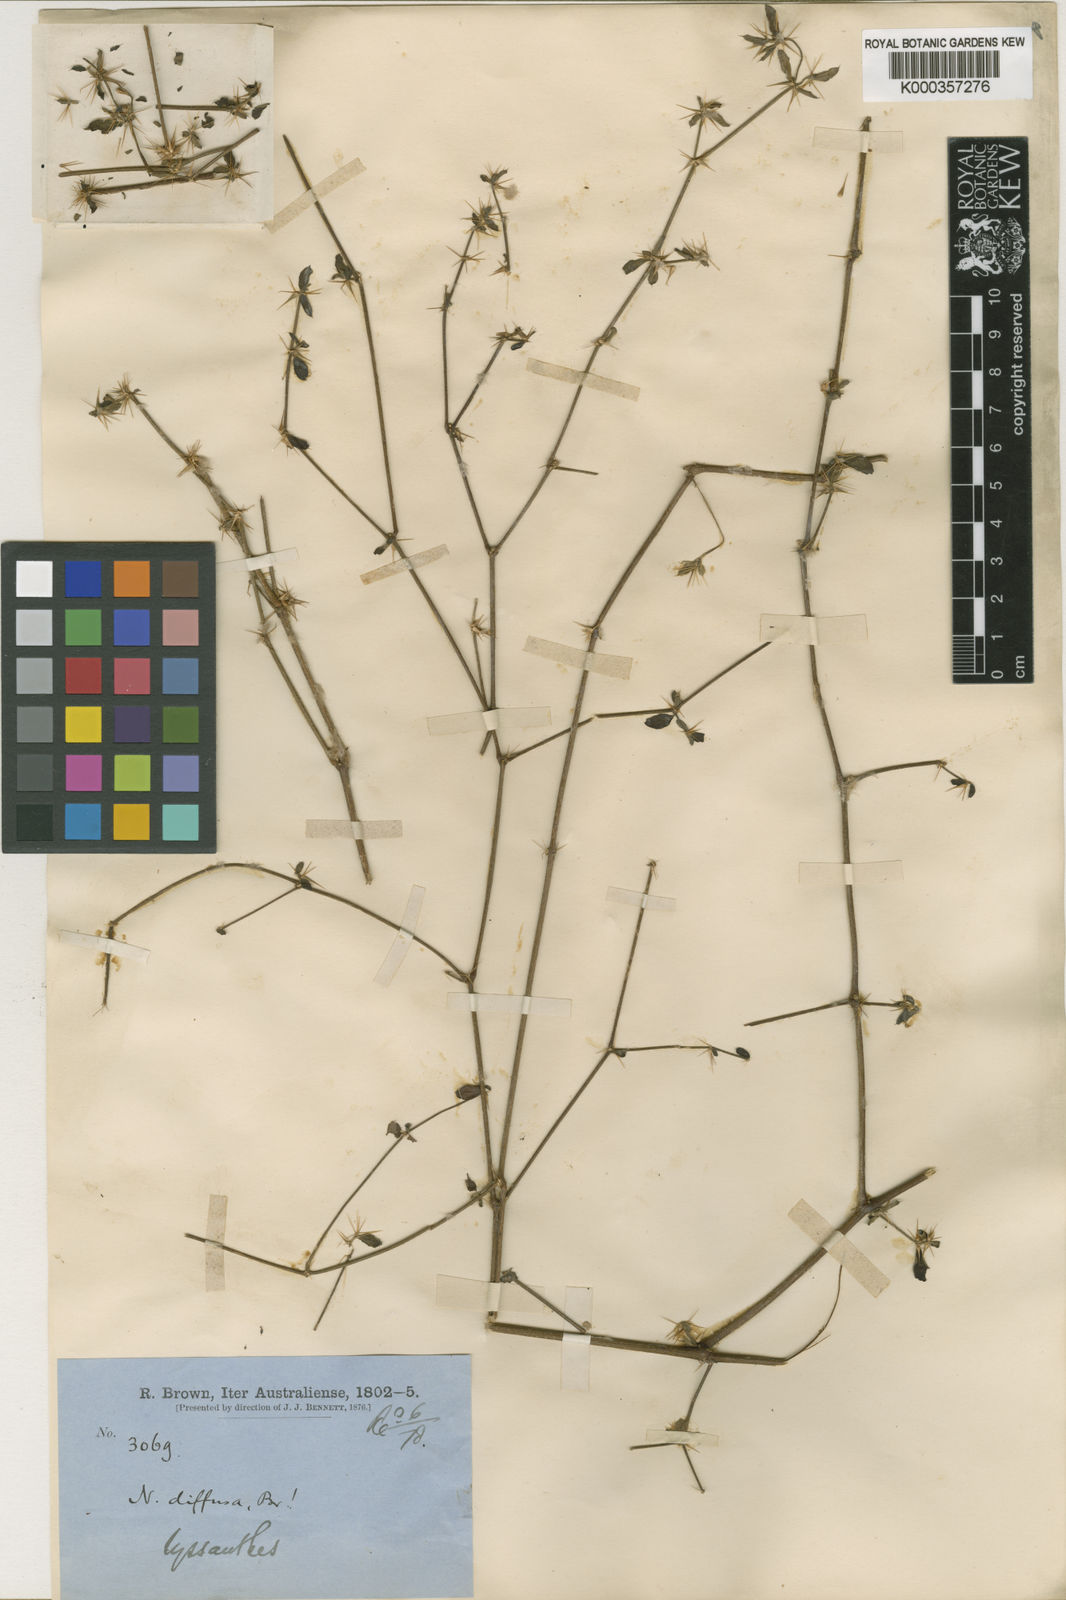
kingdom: Plantae
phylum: Tracheophyta
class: Magnoliopsida
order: Caryophyllales
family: Amaranthaceae
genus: Nyssanthes
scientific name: Nyssanthes diffusa
